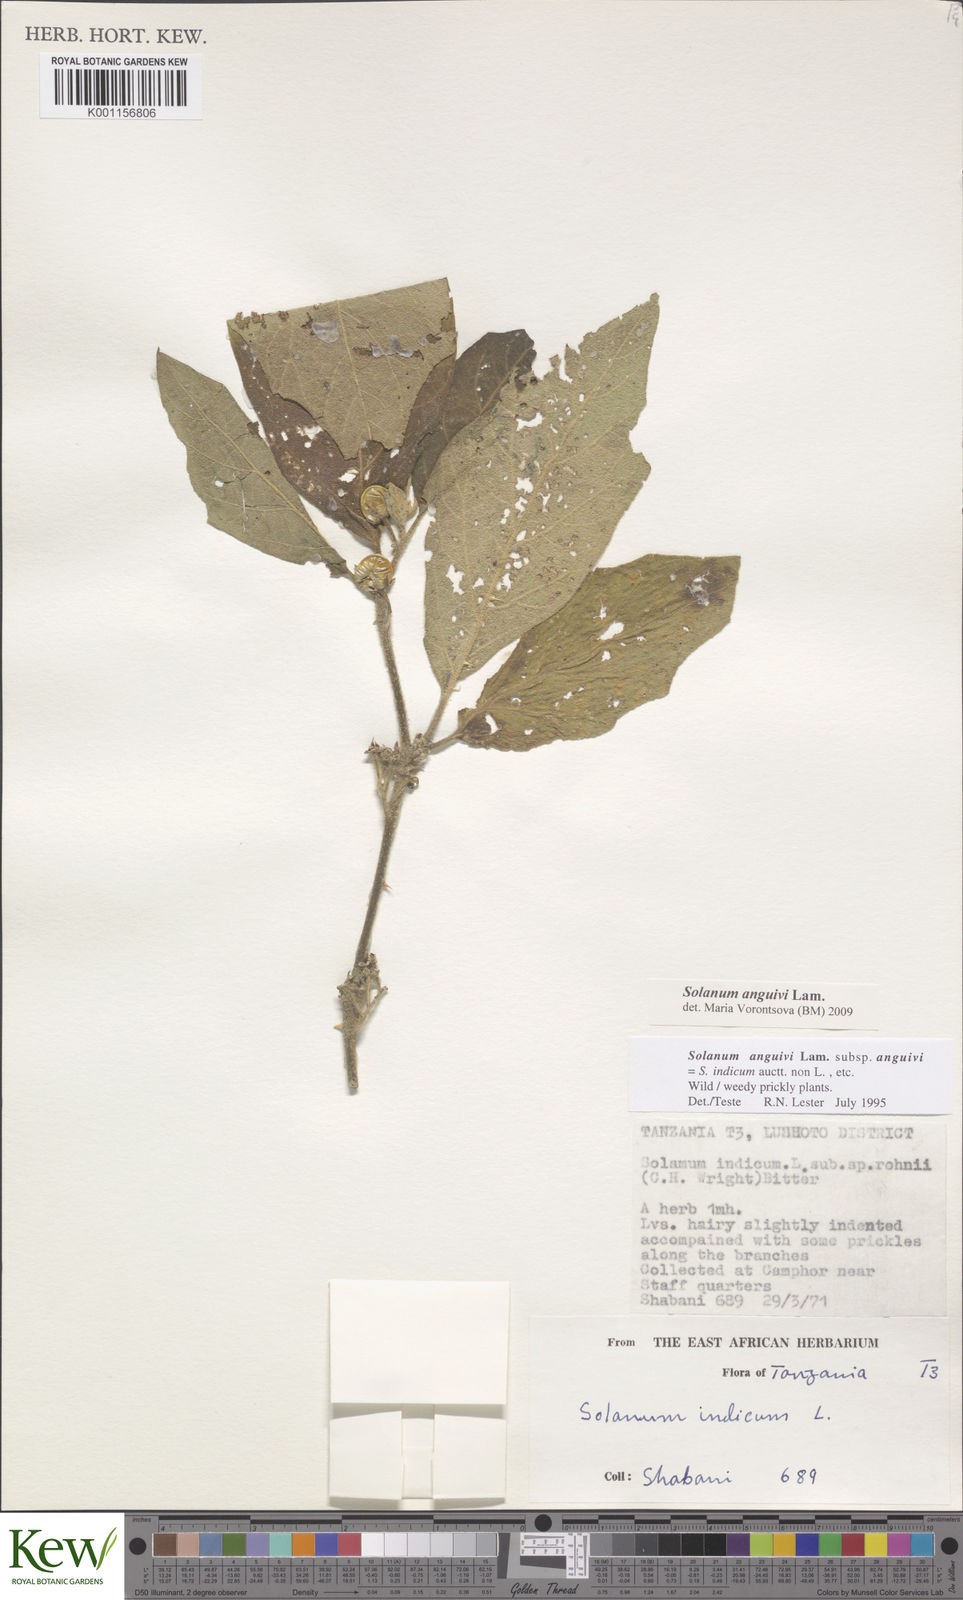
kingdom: Plantae
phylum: Tracheophyta
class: Magnoliopsida
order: Solanales
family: Solanaceae
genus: Solanum
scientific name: Solanum anguivi
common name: Forest bitterberry
